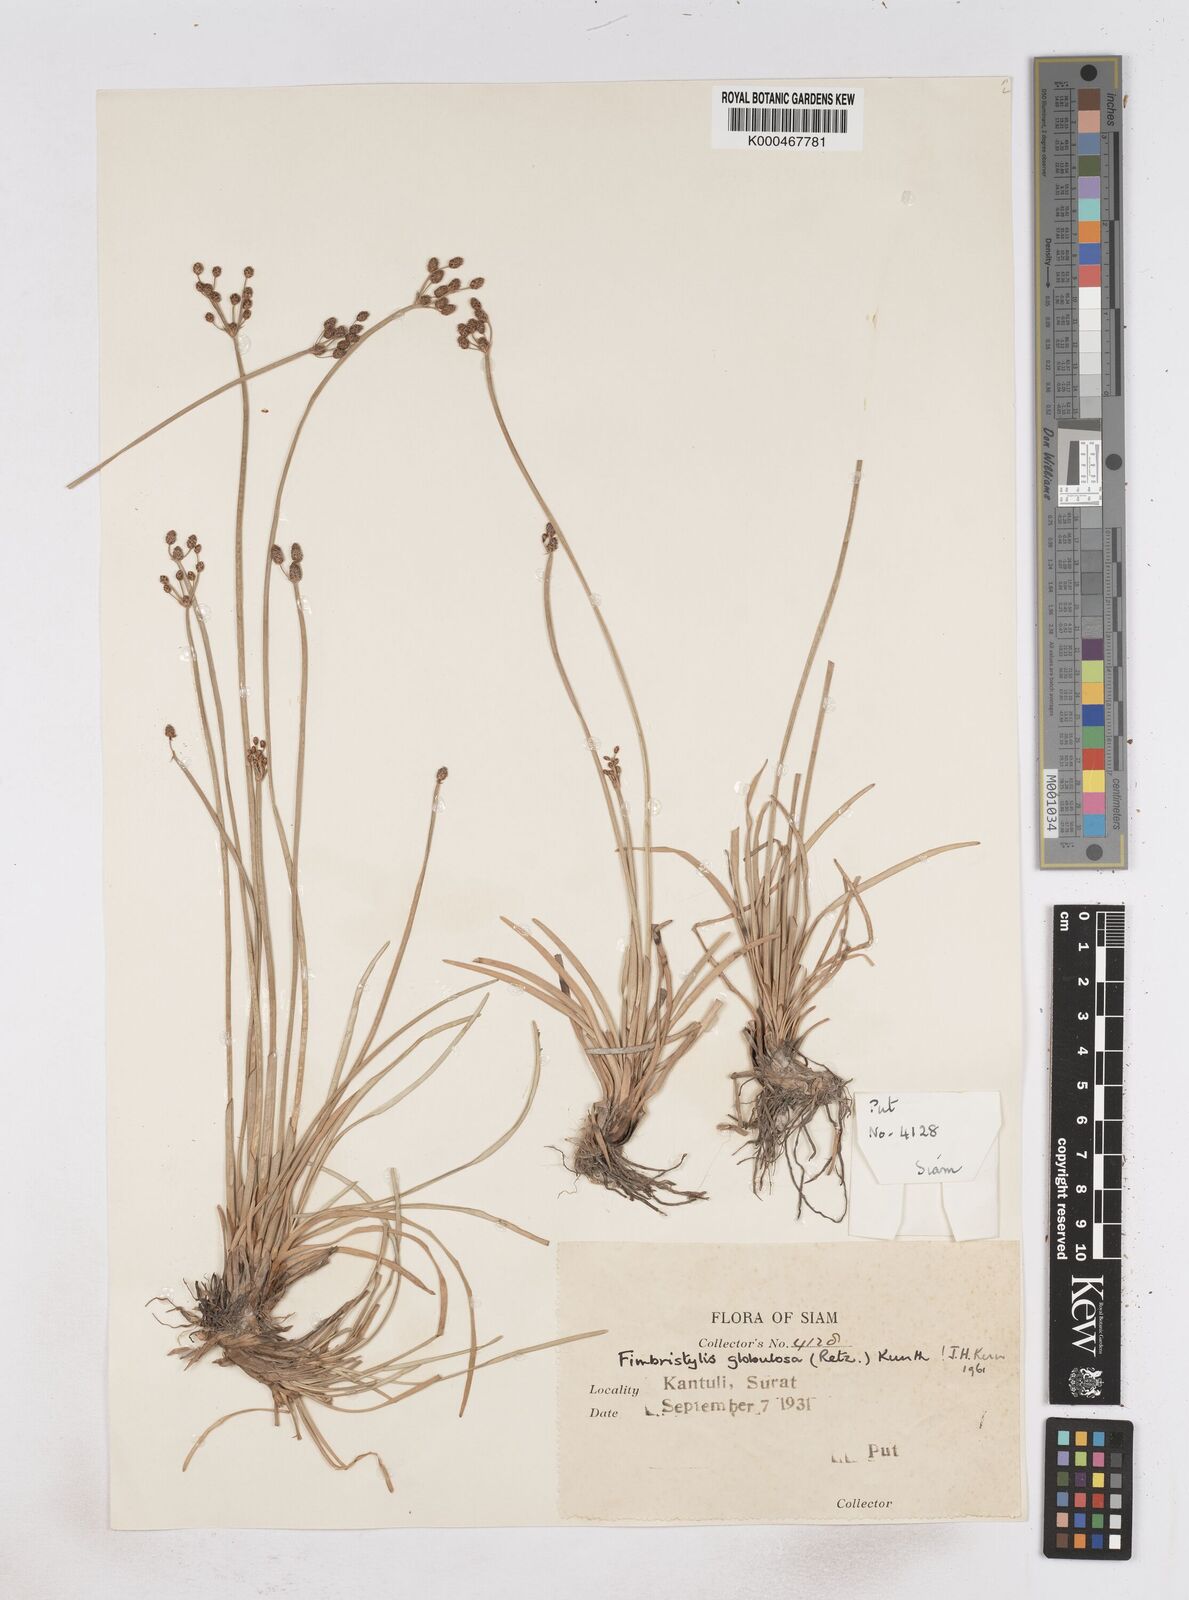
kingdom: Plantae
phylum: Tracheophyta
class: Liliopsida
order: Poales
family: Cyperaceae
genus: Fimbristylis
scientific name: Fimbristylis umbellaris
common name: Globular fimbristylis
